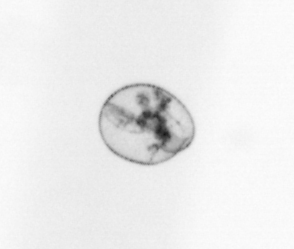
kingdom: Chromista
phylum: Myzozoa
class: Dinophyceae
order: Noctilucales
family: Noctilucaceae
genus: Noctiluca
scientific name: Noctiluca scintillans
